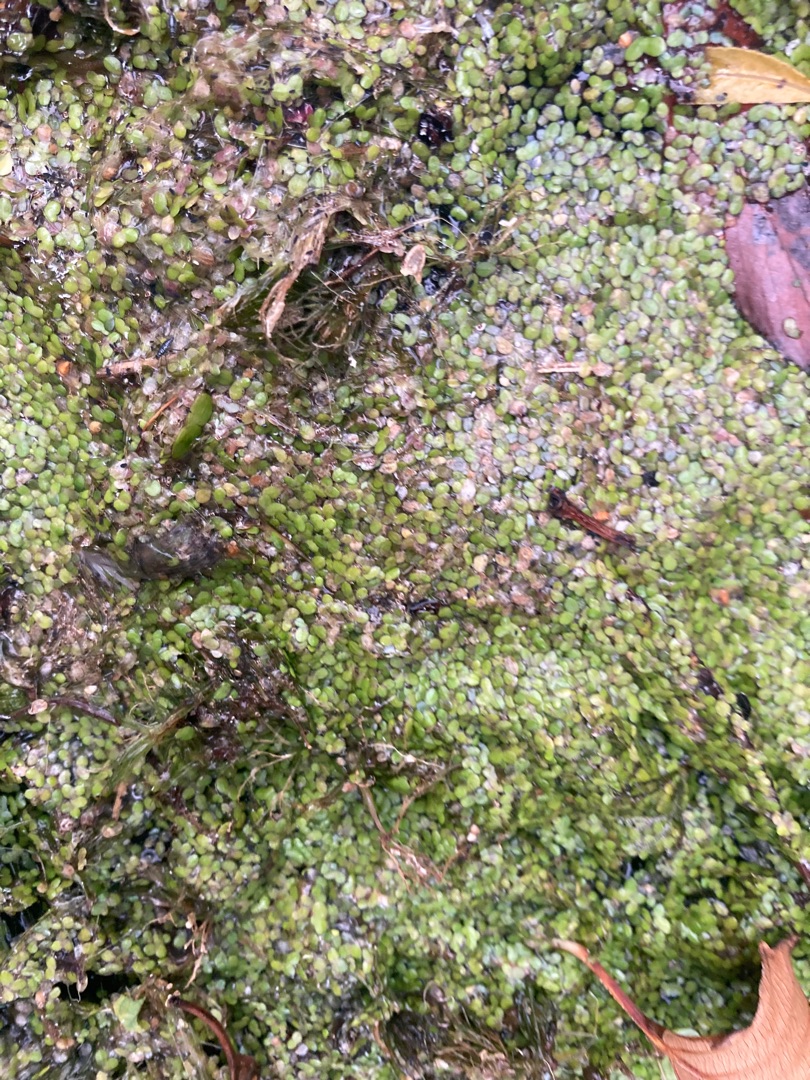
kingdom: Plantae
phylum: Tracheophyta
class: Liliopsida
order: Alismatales
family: Araceae
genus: Lemna
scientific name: Lemna
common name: Andemad (Lemna-slægten)
